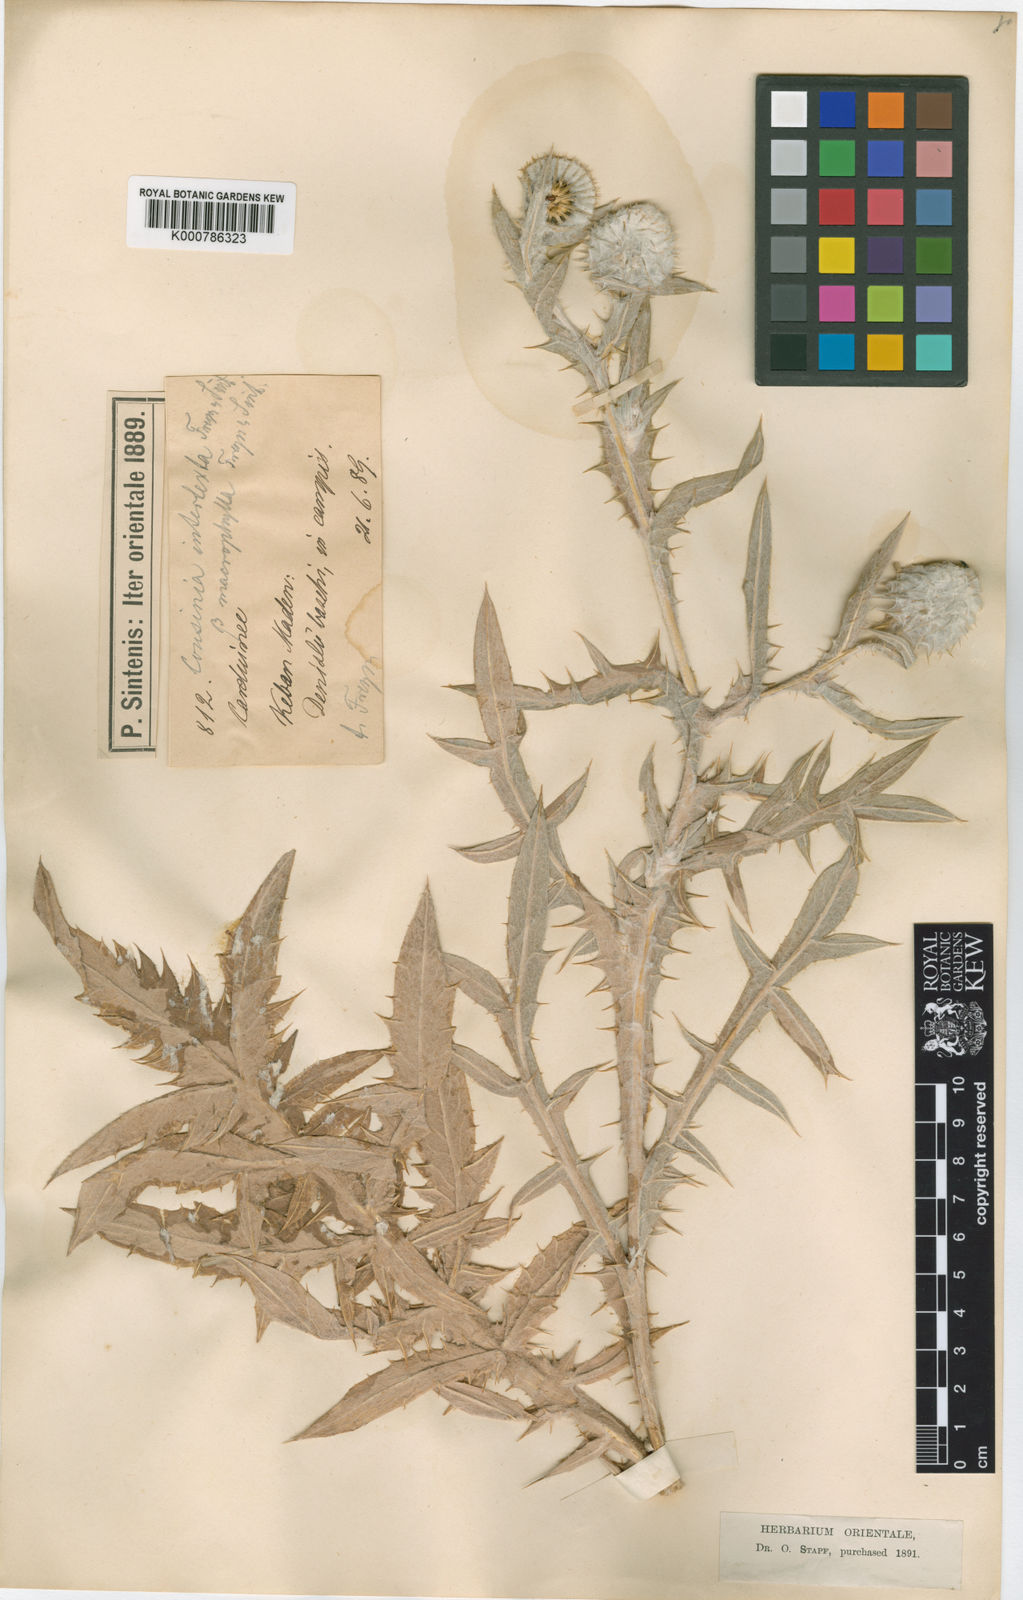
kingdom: Plantae
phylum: Tracheophyta
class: Magnoliopsida
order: Asterales
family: Asteraceae
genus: Cousinia
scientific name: Cousinia intertexta
